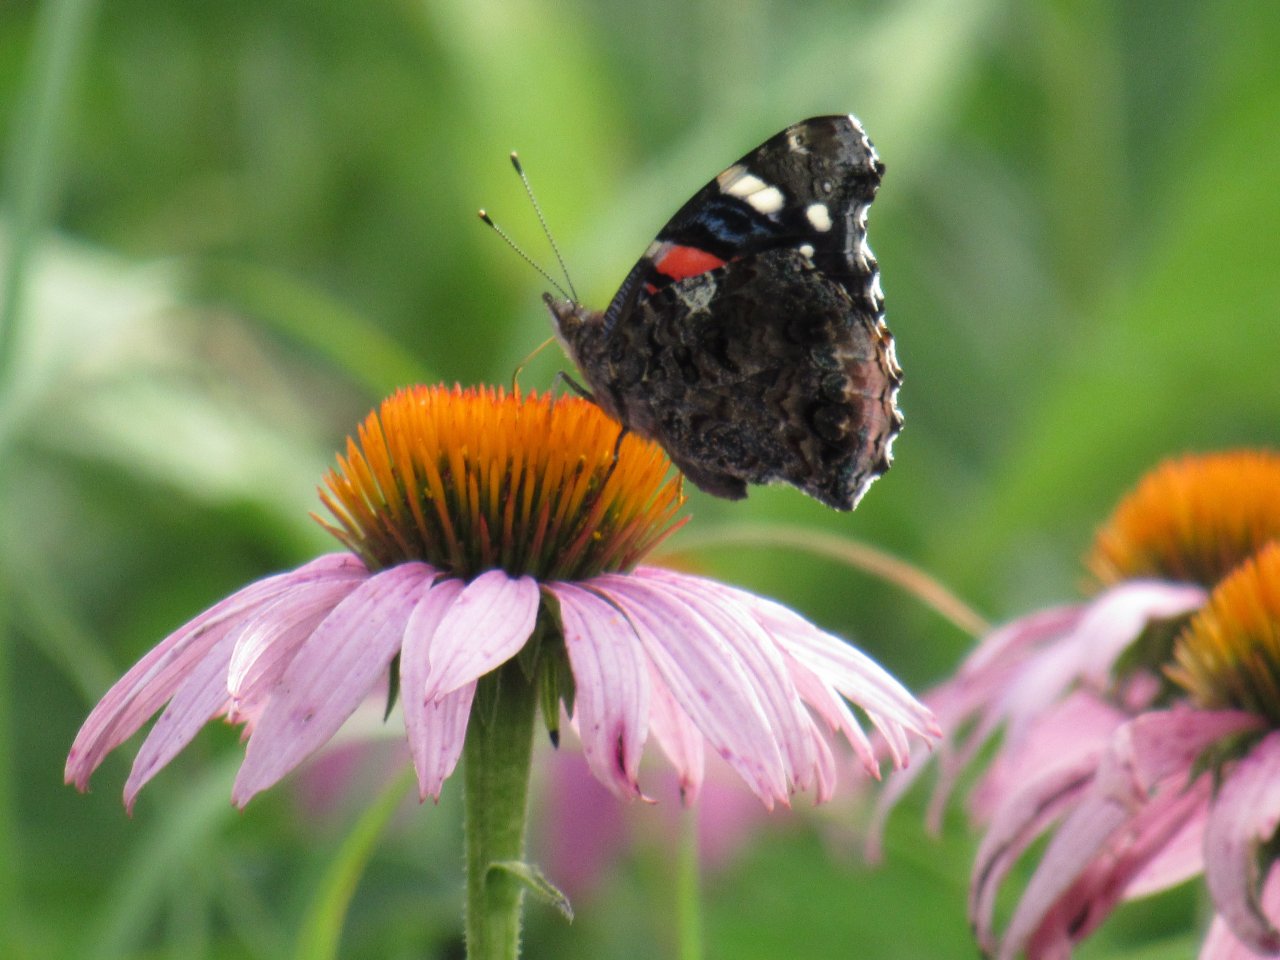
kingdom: Animalia
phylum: Arthropoda
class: Insecta
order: Lepidoptera
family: Nymphalidae
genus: Vanessa
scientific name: Vanessa atalanta
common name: Red Admiral
